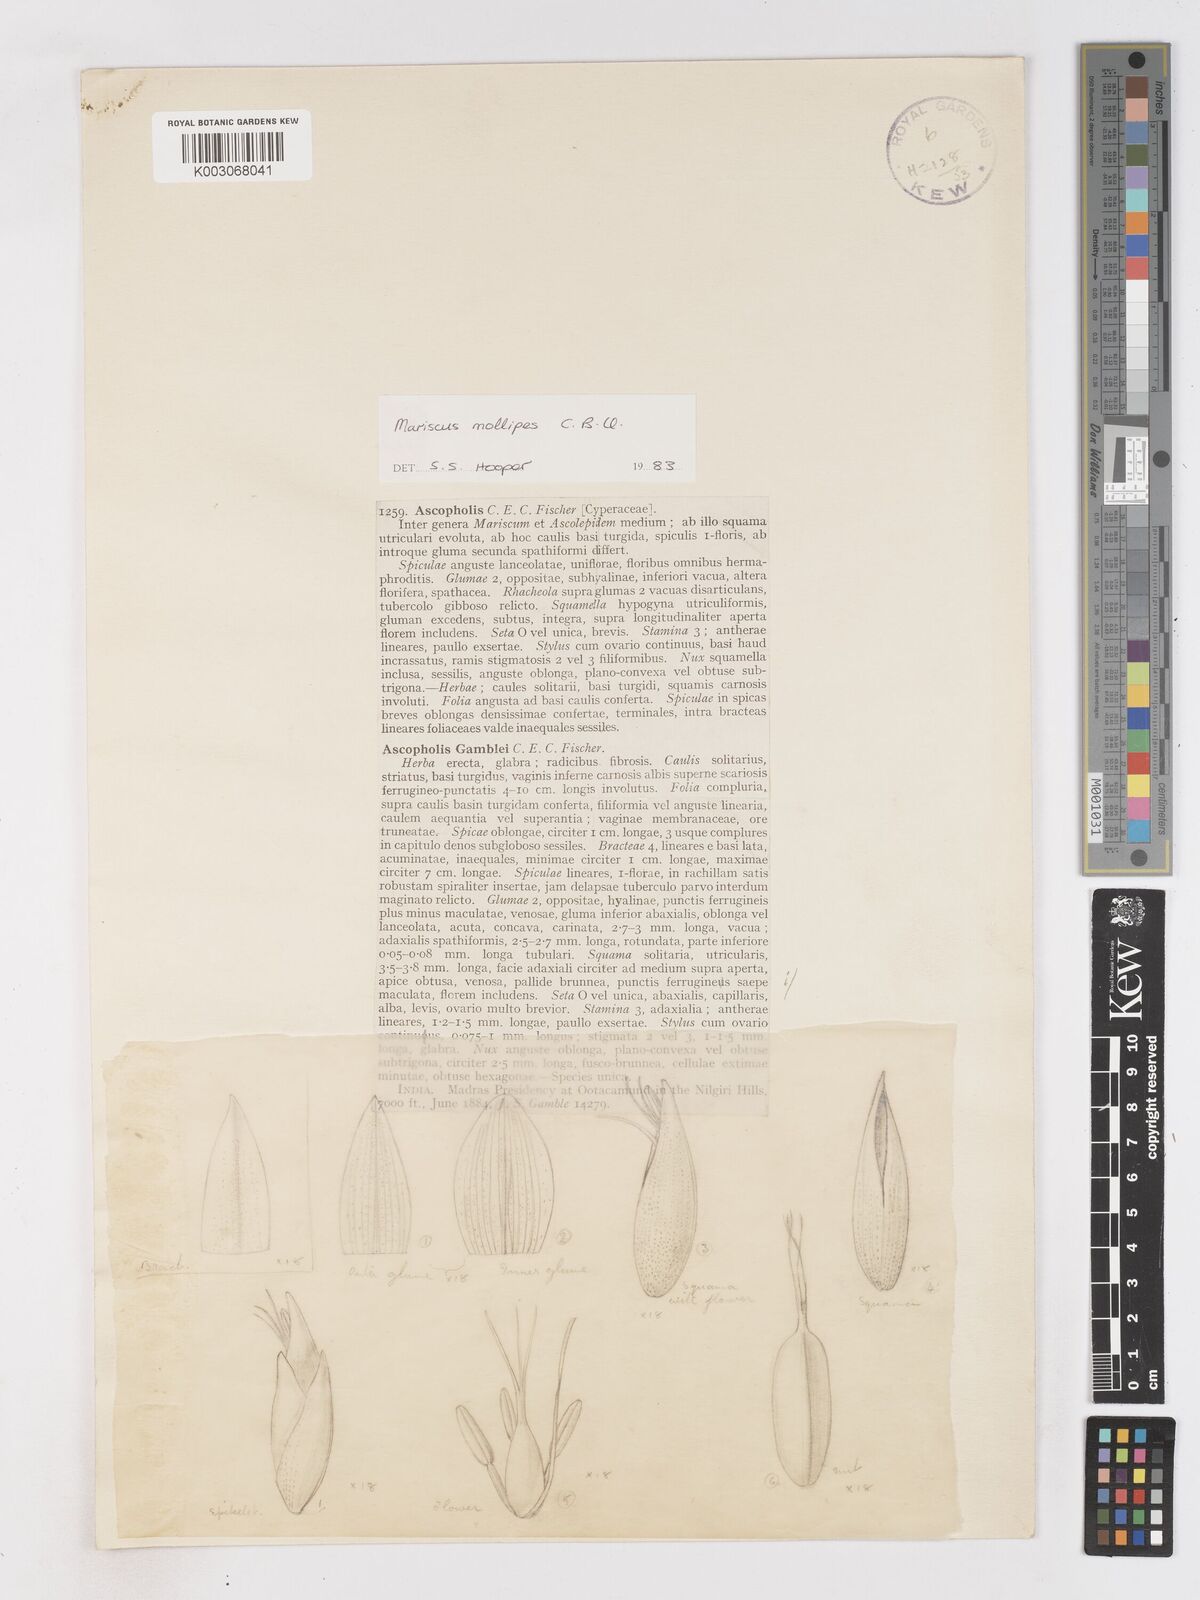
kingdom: Plantae
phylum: Tracheophyta
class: Liliopsida
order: Poales
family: Cyperaceae
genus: Cyperus
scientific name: Cyperus mollipes
